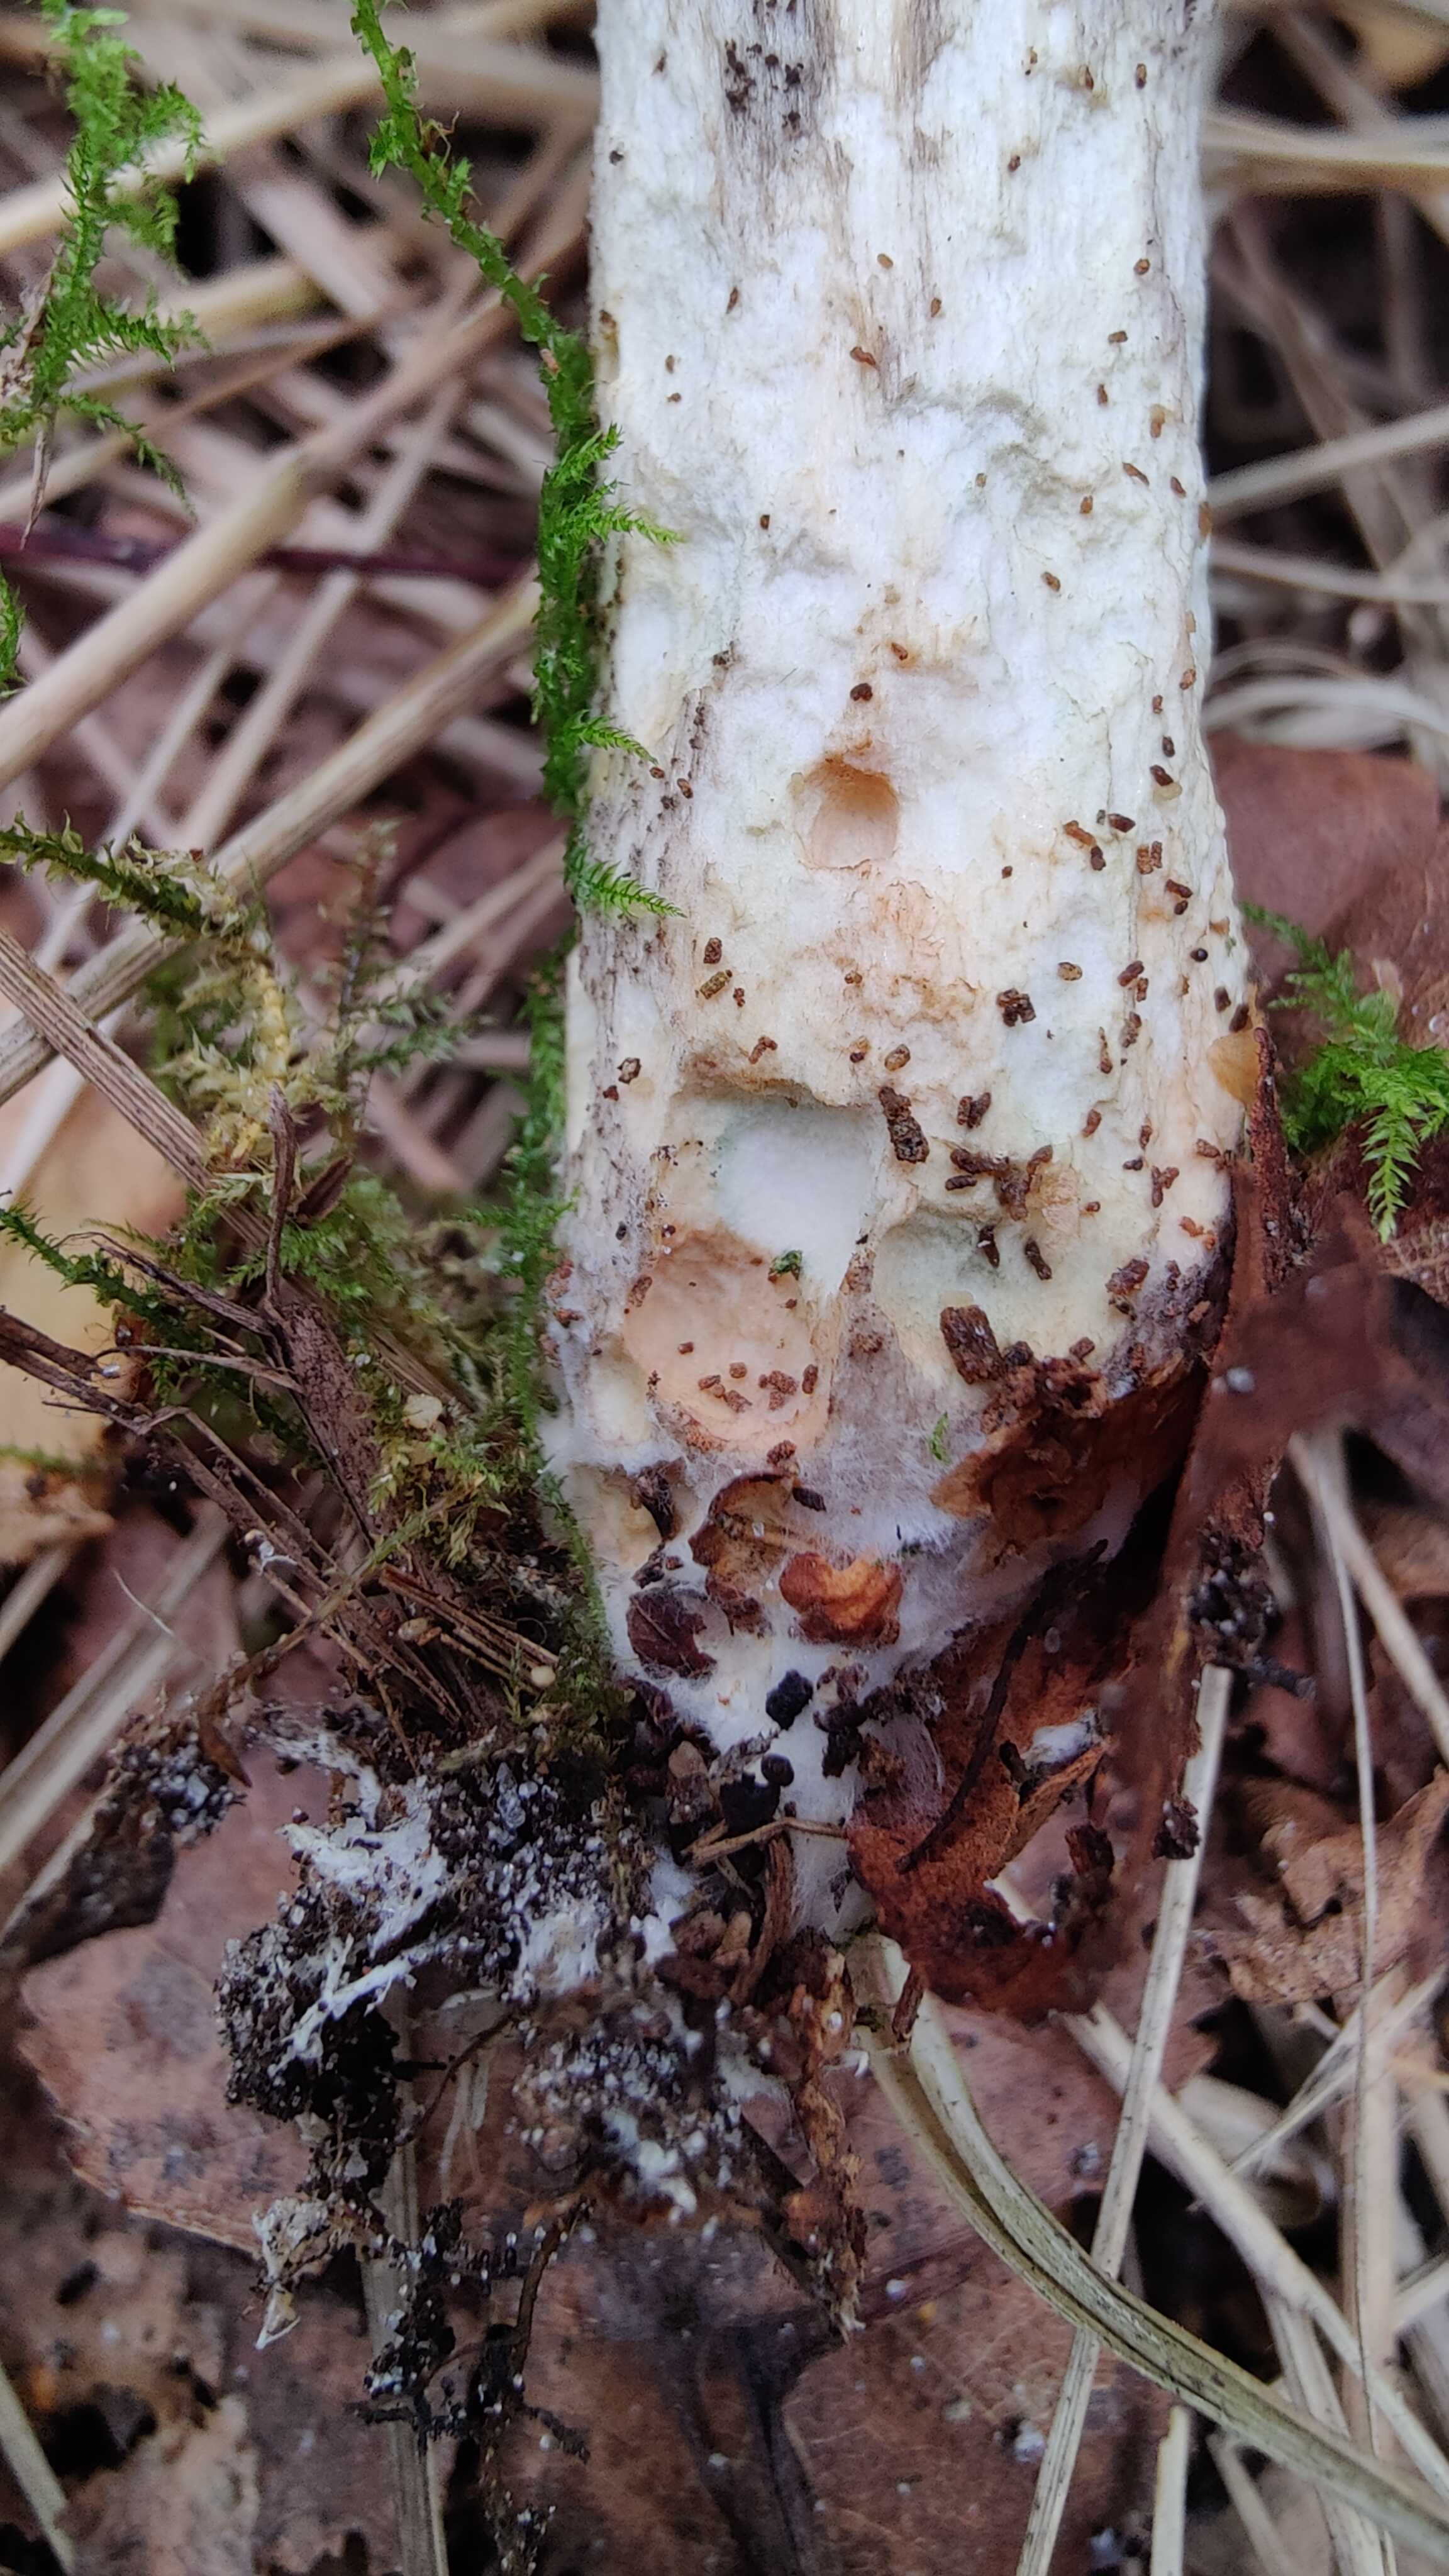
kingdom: Fungi
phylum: Basidiomycota
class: Agaricomycetes
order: Boletales
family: Boletaceae
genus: Leccinum
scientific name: Leccinum
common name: skælrørhat
